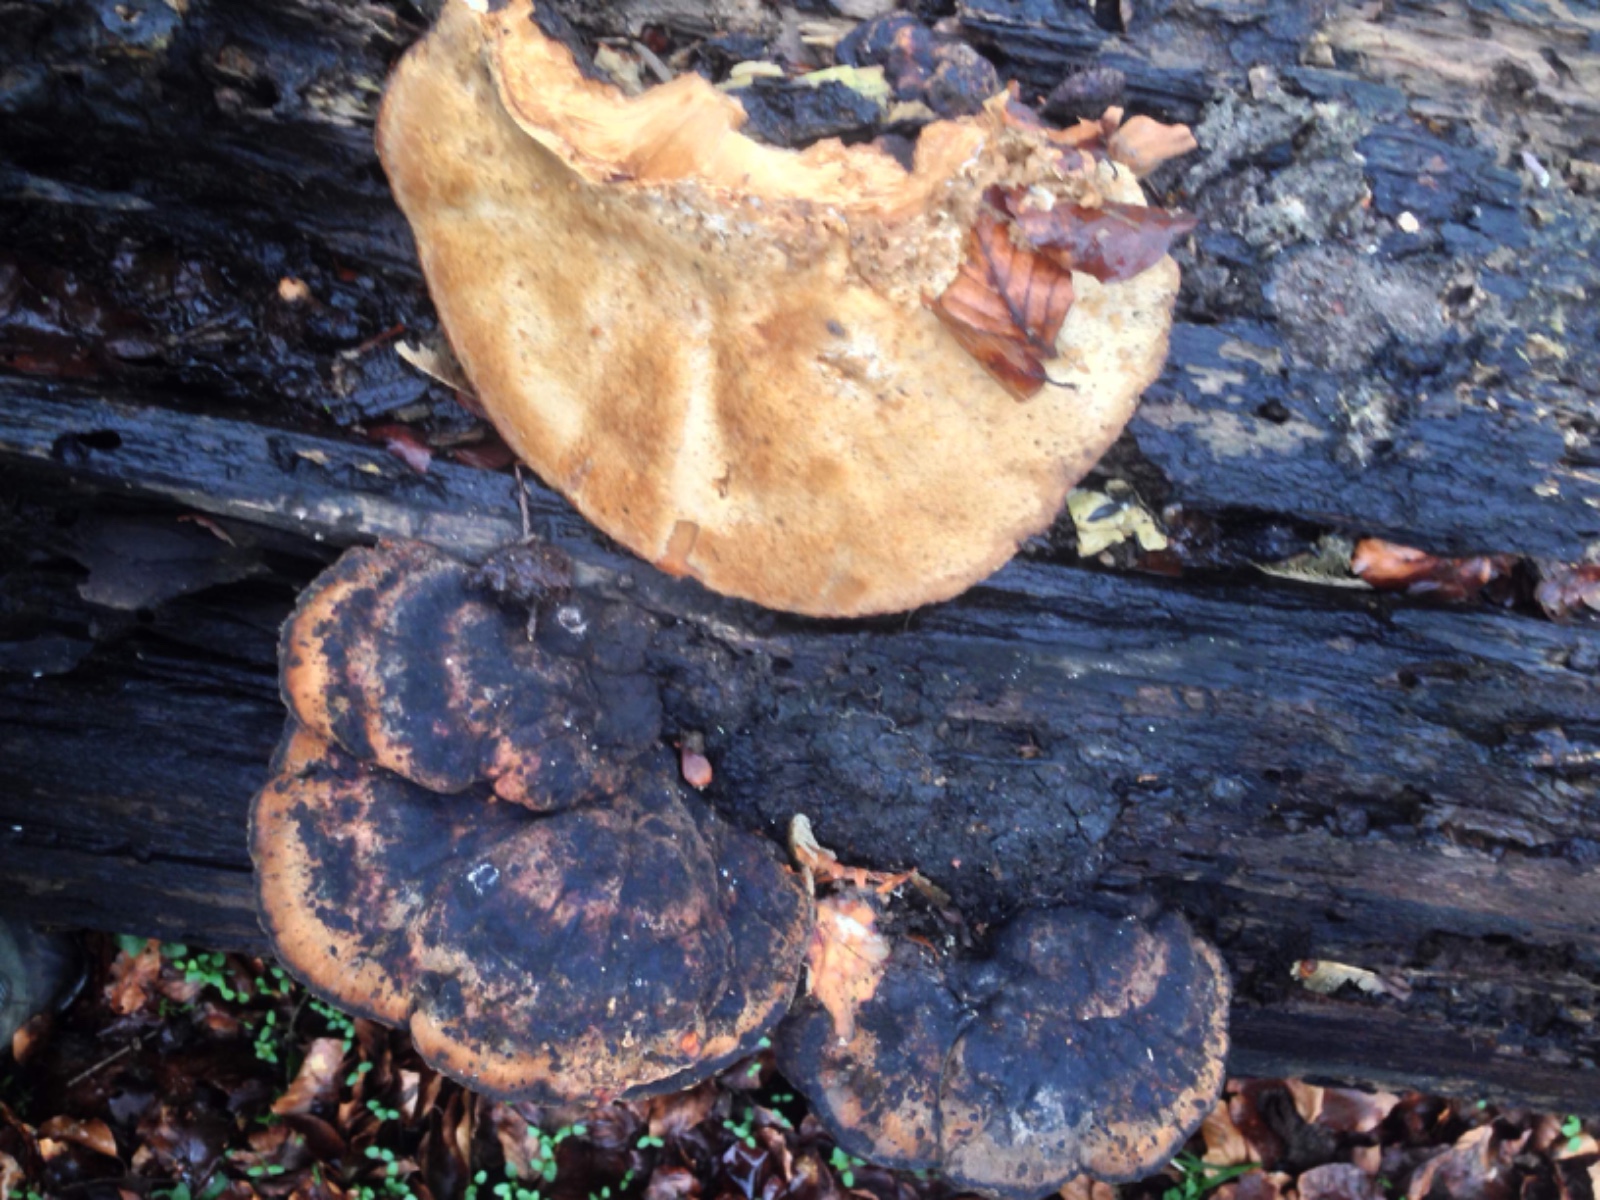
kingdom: Fungi
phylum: Basidiomycota
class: Agaricomycetes
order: Polyporales
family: Ischnodermataceae
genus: Ischnoderma
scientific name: Ischnoderma resinosum
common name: løv-tjæreporesvamp
